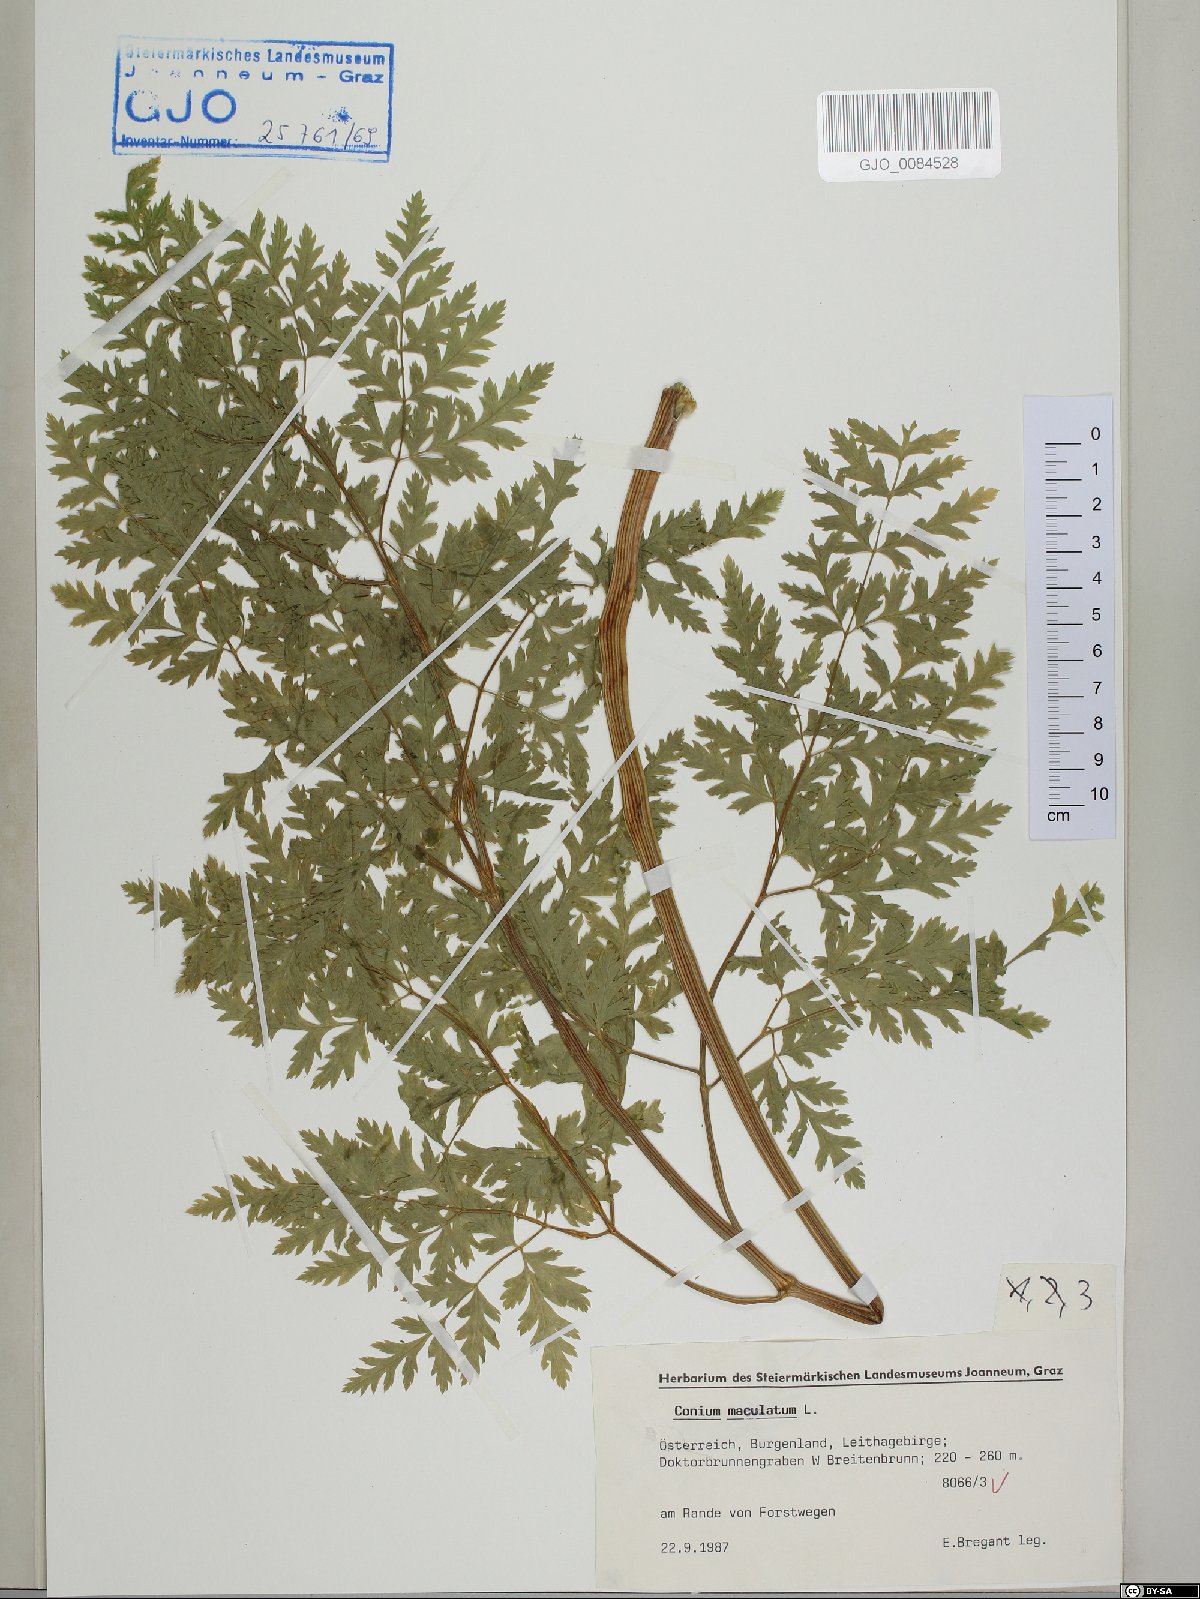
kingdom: Plantae
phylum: Tracheophyta
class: Magnoliopsida
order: Apiales
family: Apiaceae
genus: Conium
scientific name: Conium maculatum
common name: Hemlock
